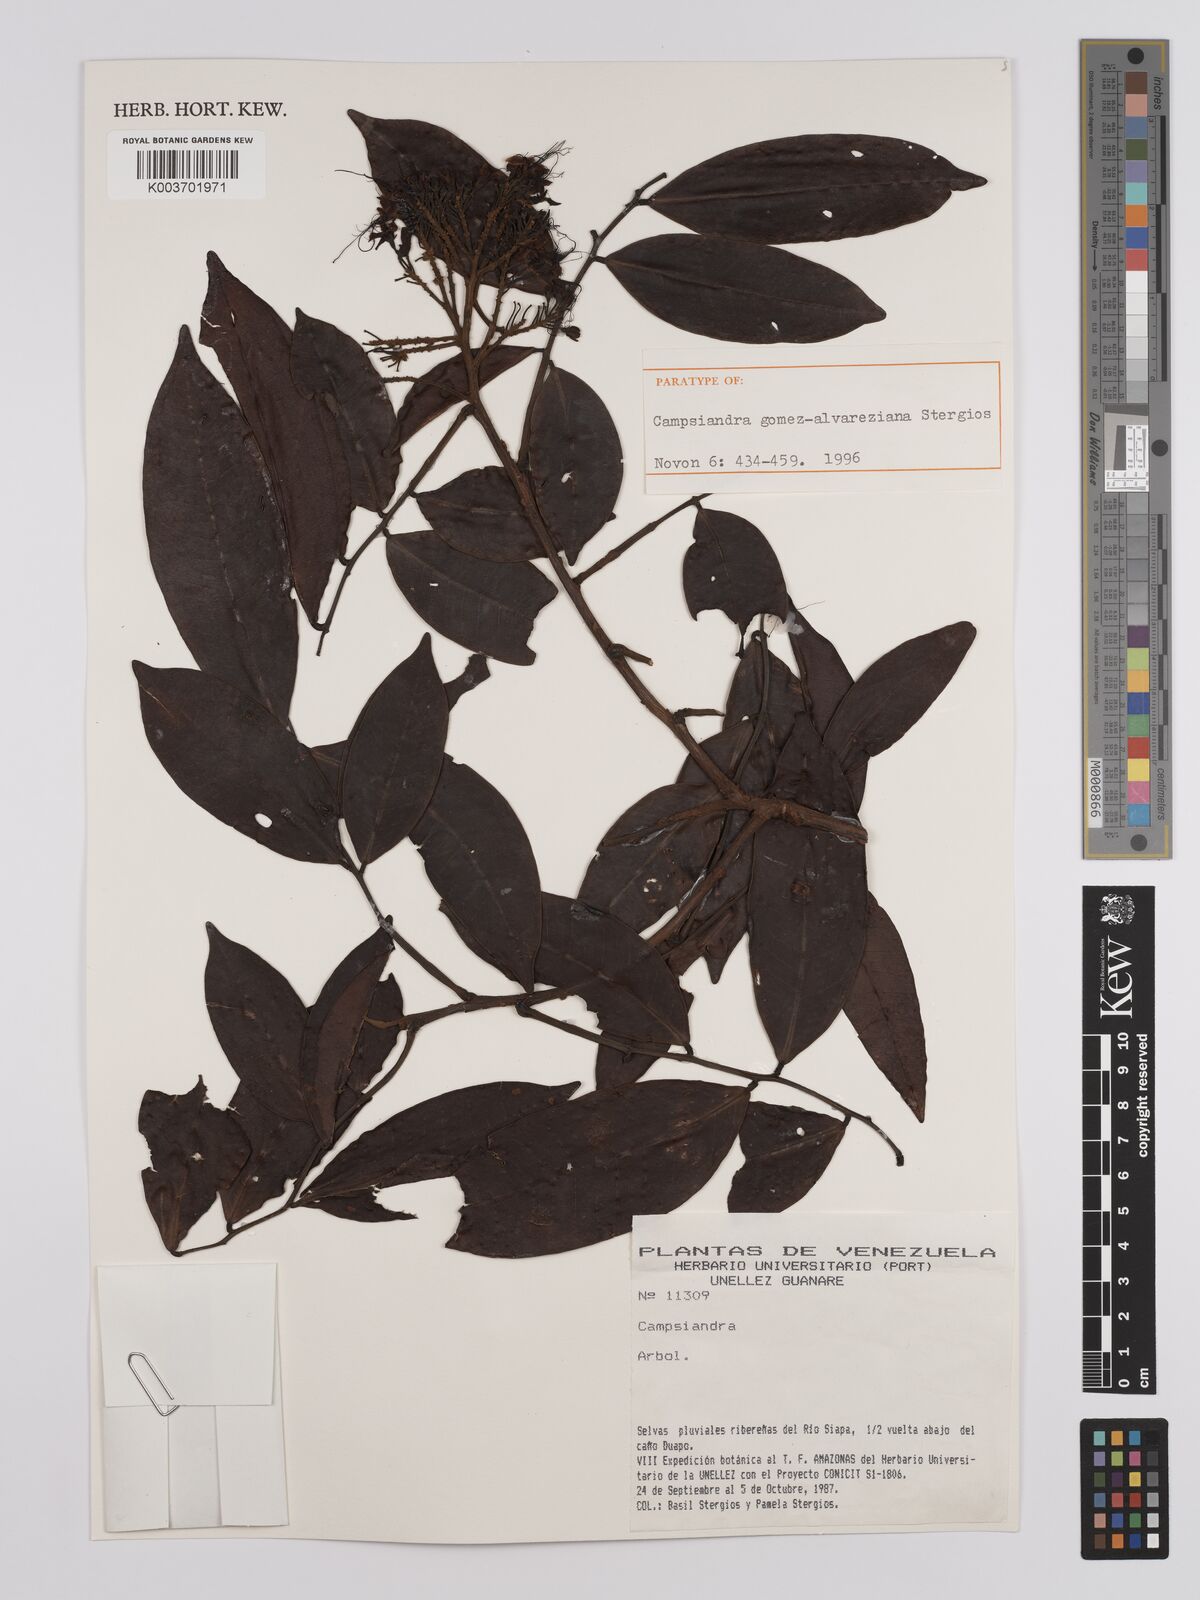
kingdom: Plantae
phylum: Tracheophyta
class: Magnoliopsida
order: Fabales
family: Fabaceae
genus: Campsiandra
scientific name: Campsiandra gomez-alvareziana
